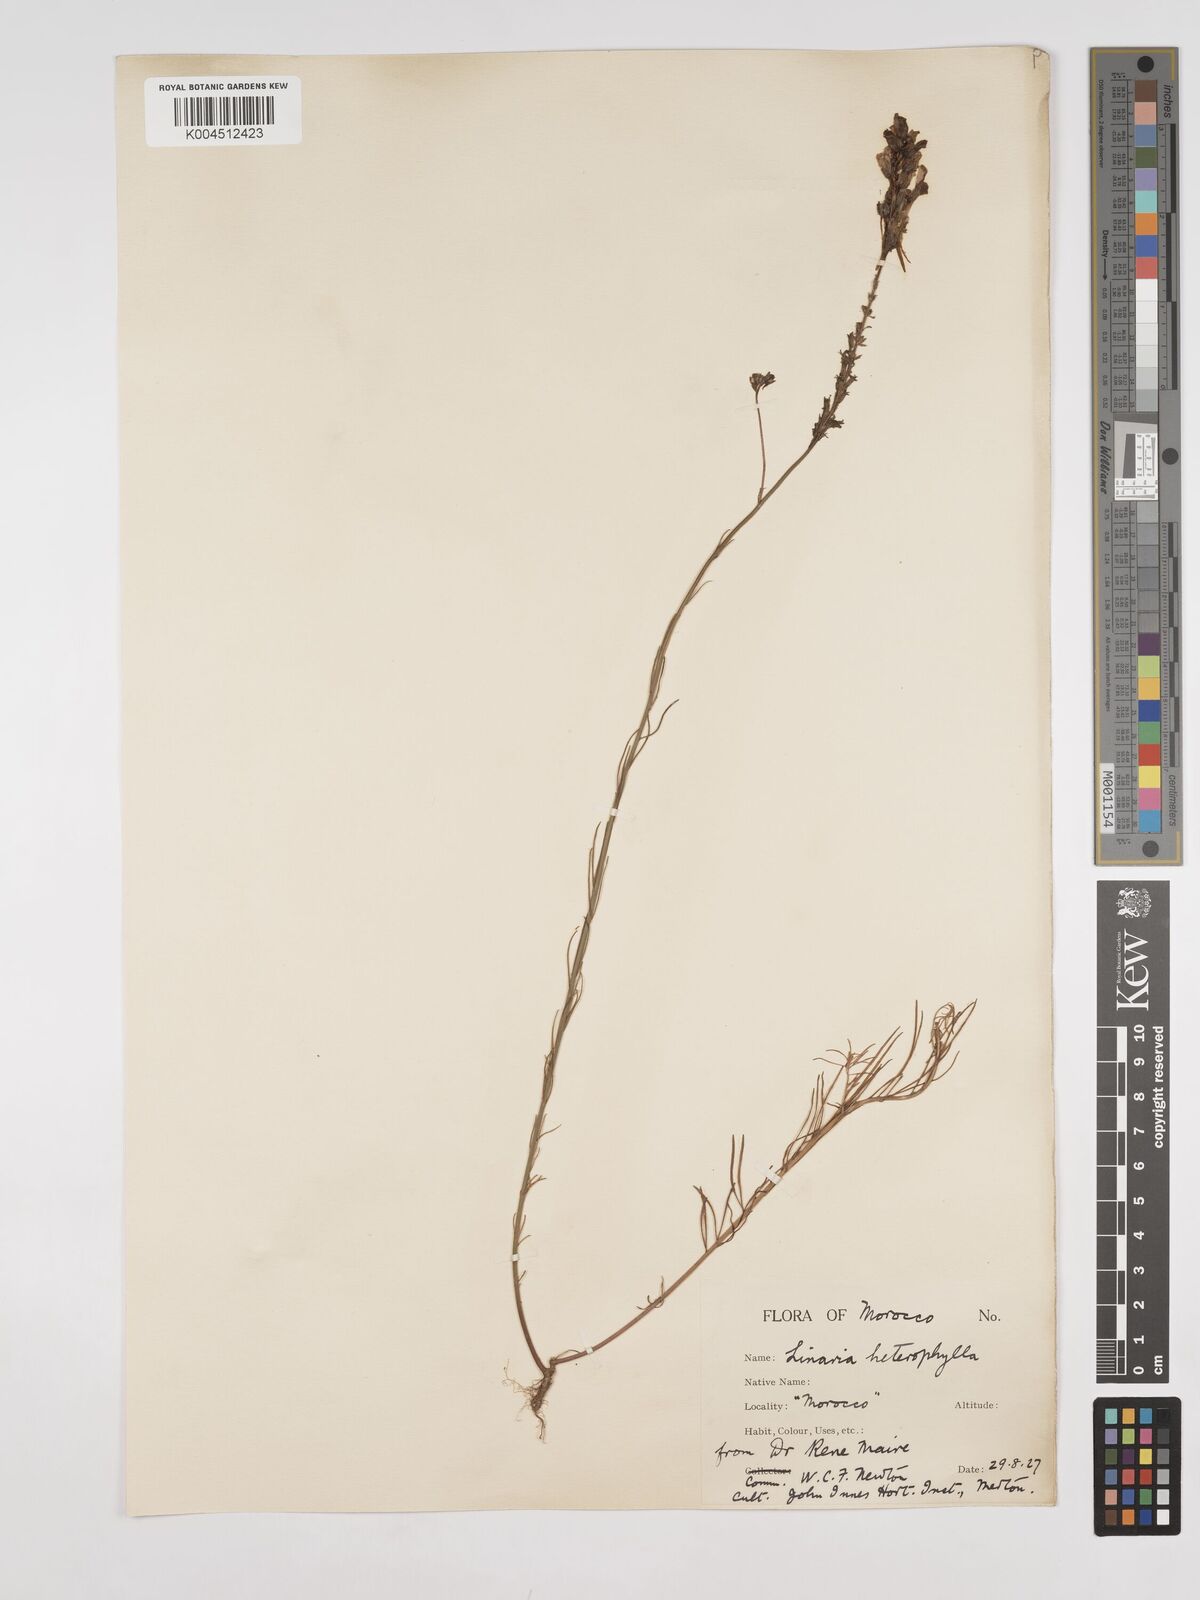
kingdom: Plantae
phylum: Tracheophyta
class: Magnoliopsida
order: Lamiales
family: Plantaginaceae
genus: Linaria
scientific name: Linaria multicaulis
